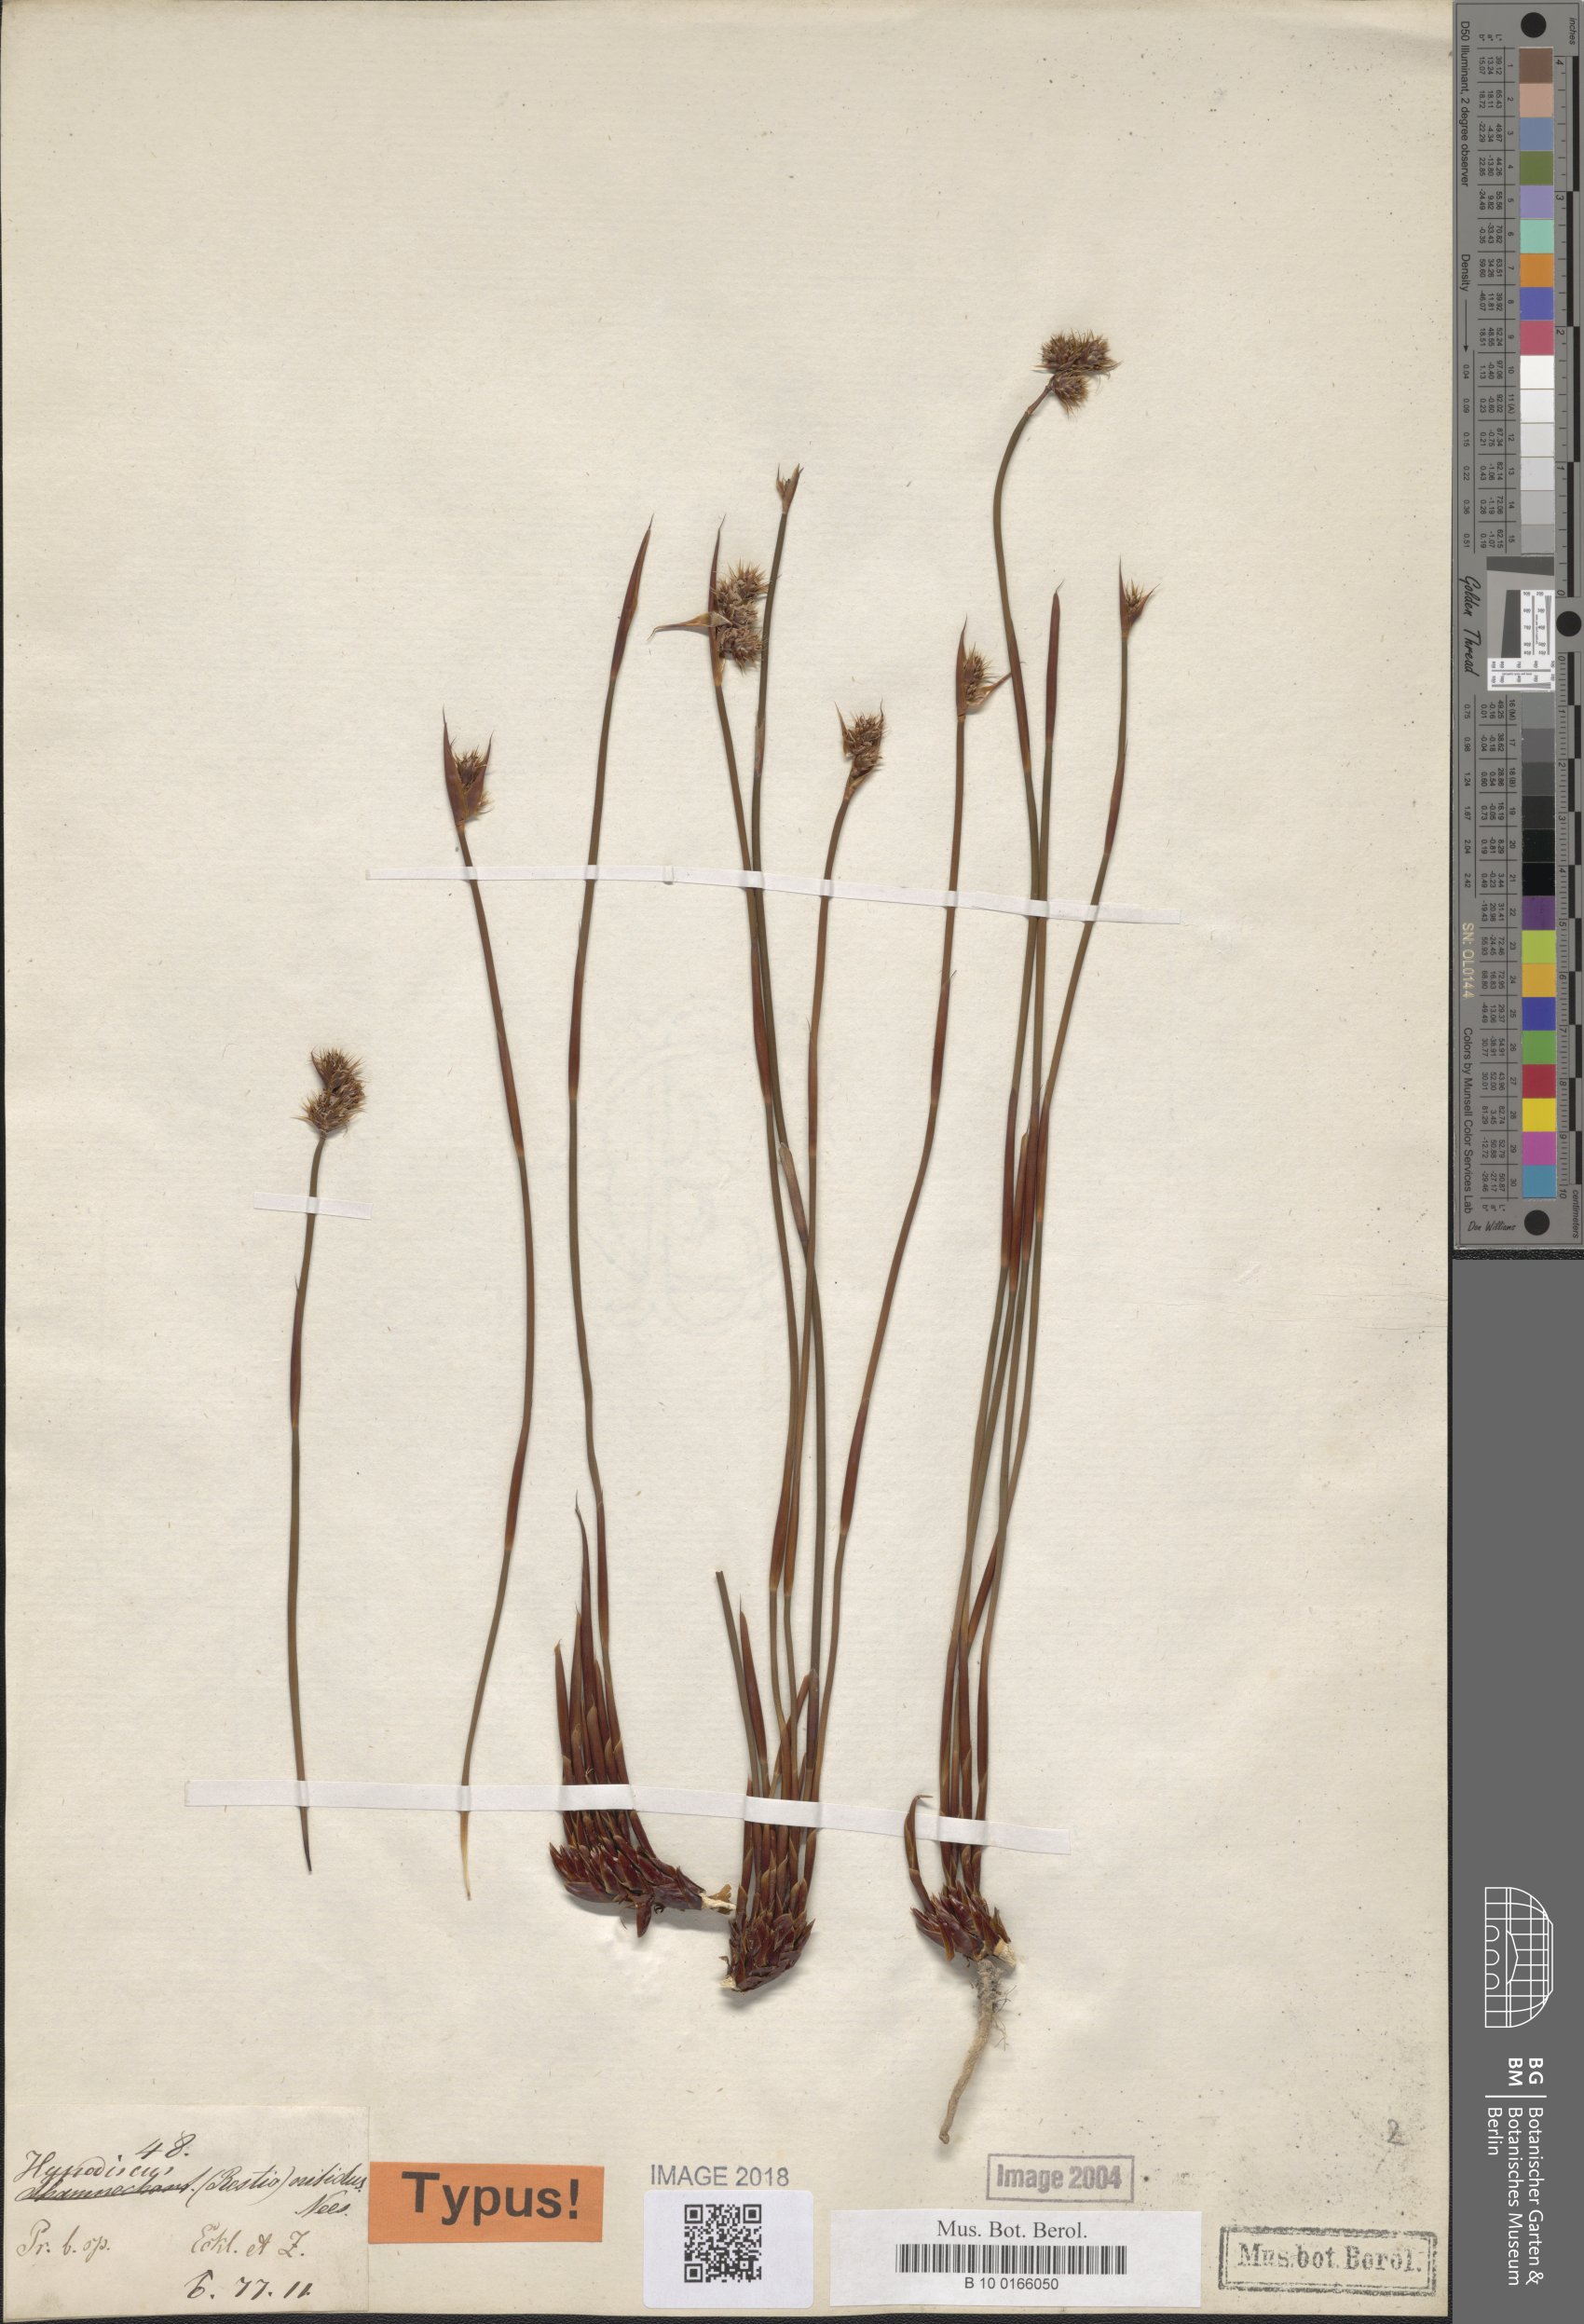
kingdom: Plantae
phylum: Tracheophyta
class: Liliopsida
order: Poales
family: Restionaceae
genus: Cannomois
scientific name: Cannomois nitida
